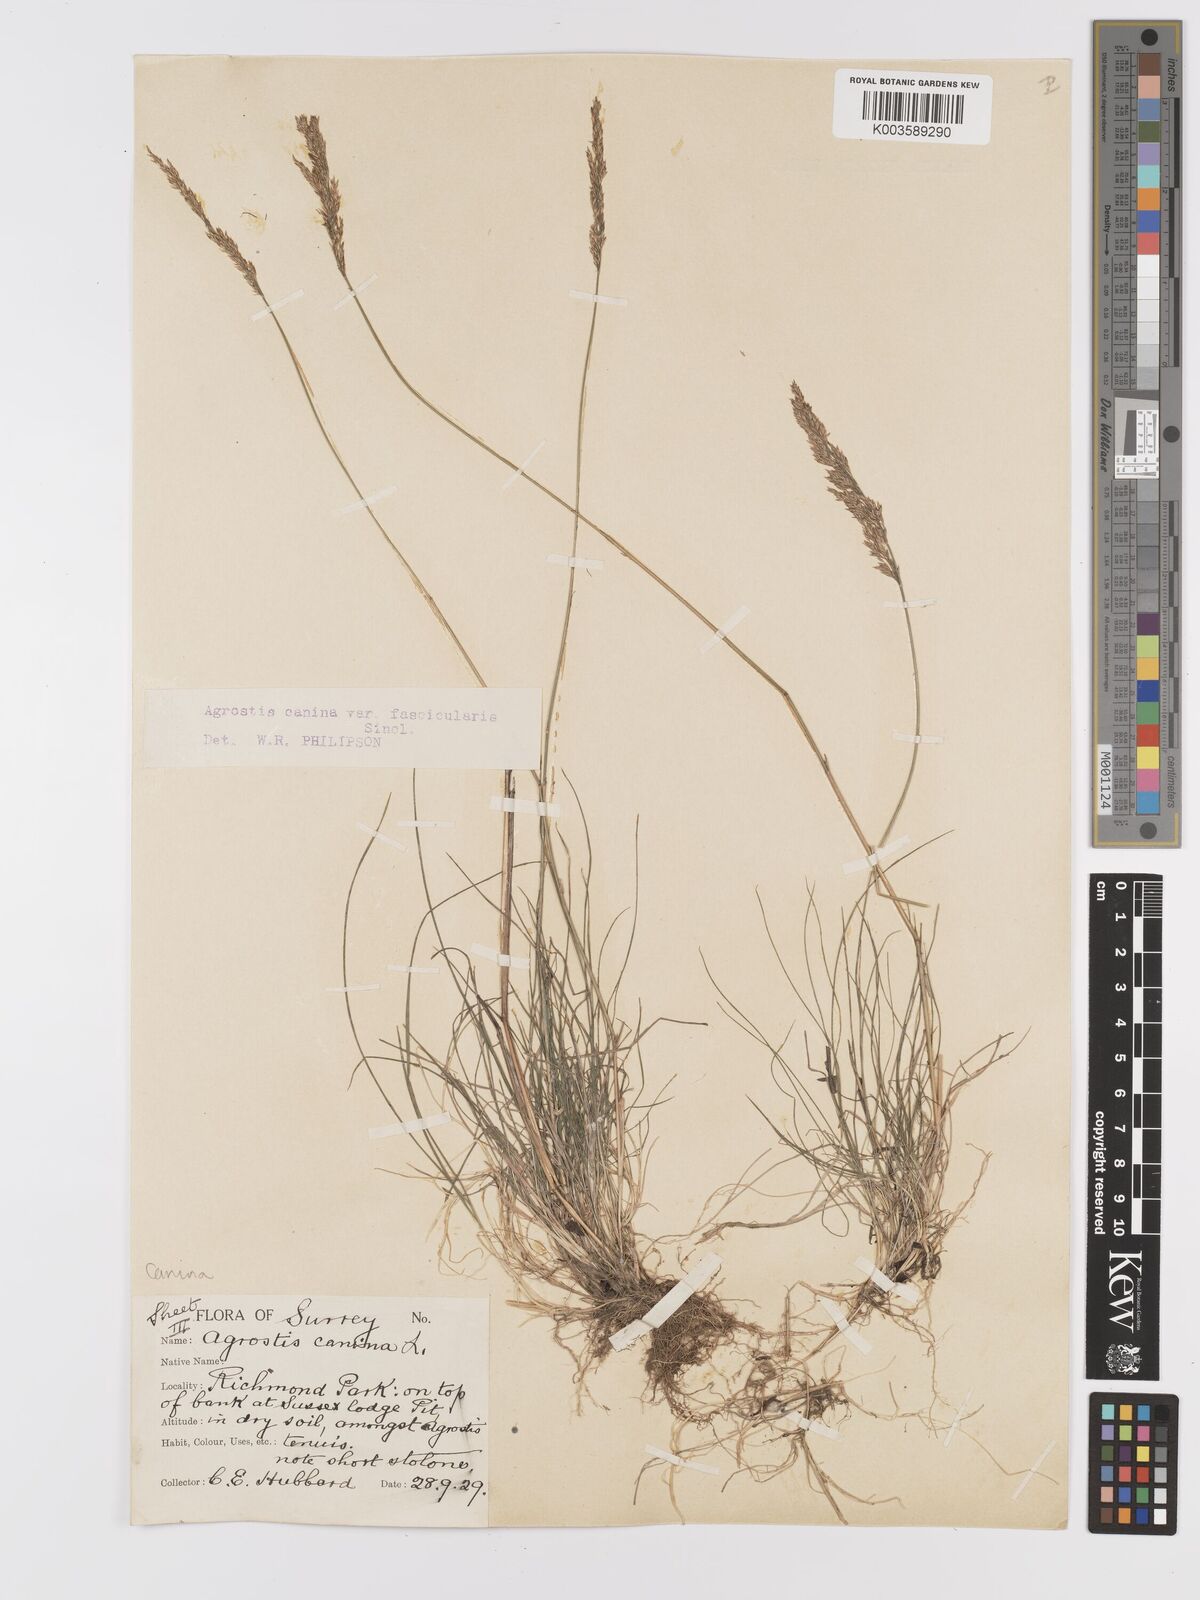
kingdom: Plantae
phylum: Tracheophyta
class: Liliopsida
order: Poales
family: Poaceae
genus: Agrostis
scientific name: Agrostis canina
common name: Velvet bent
